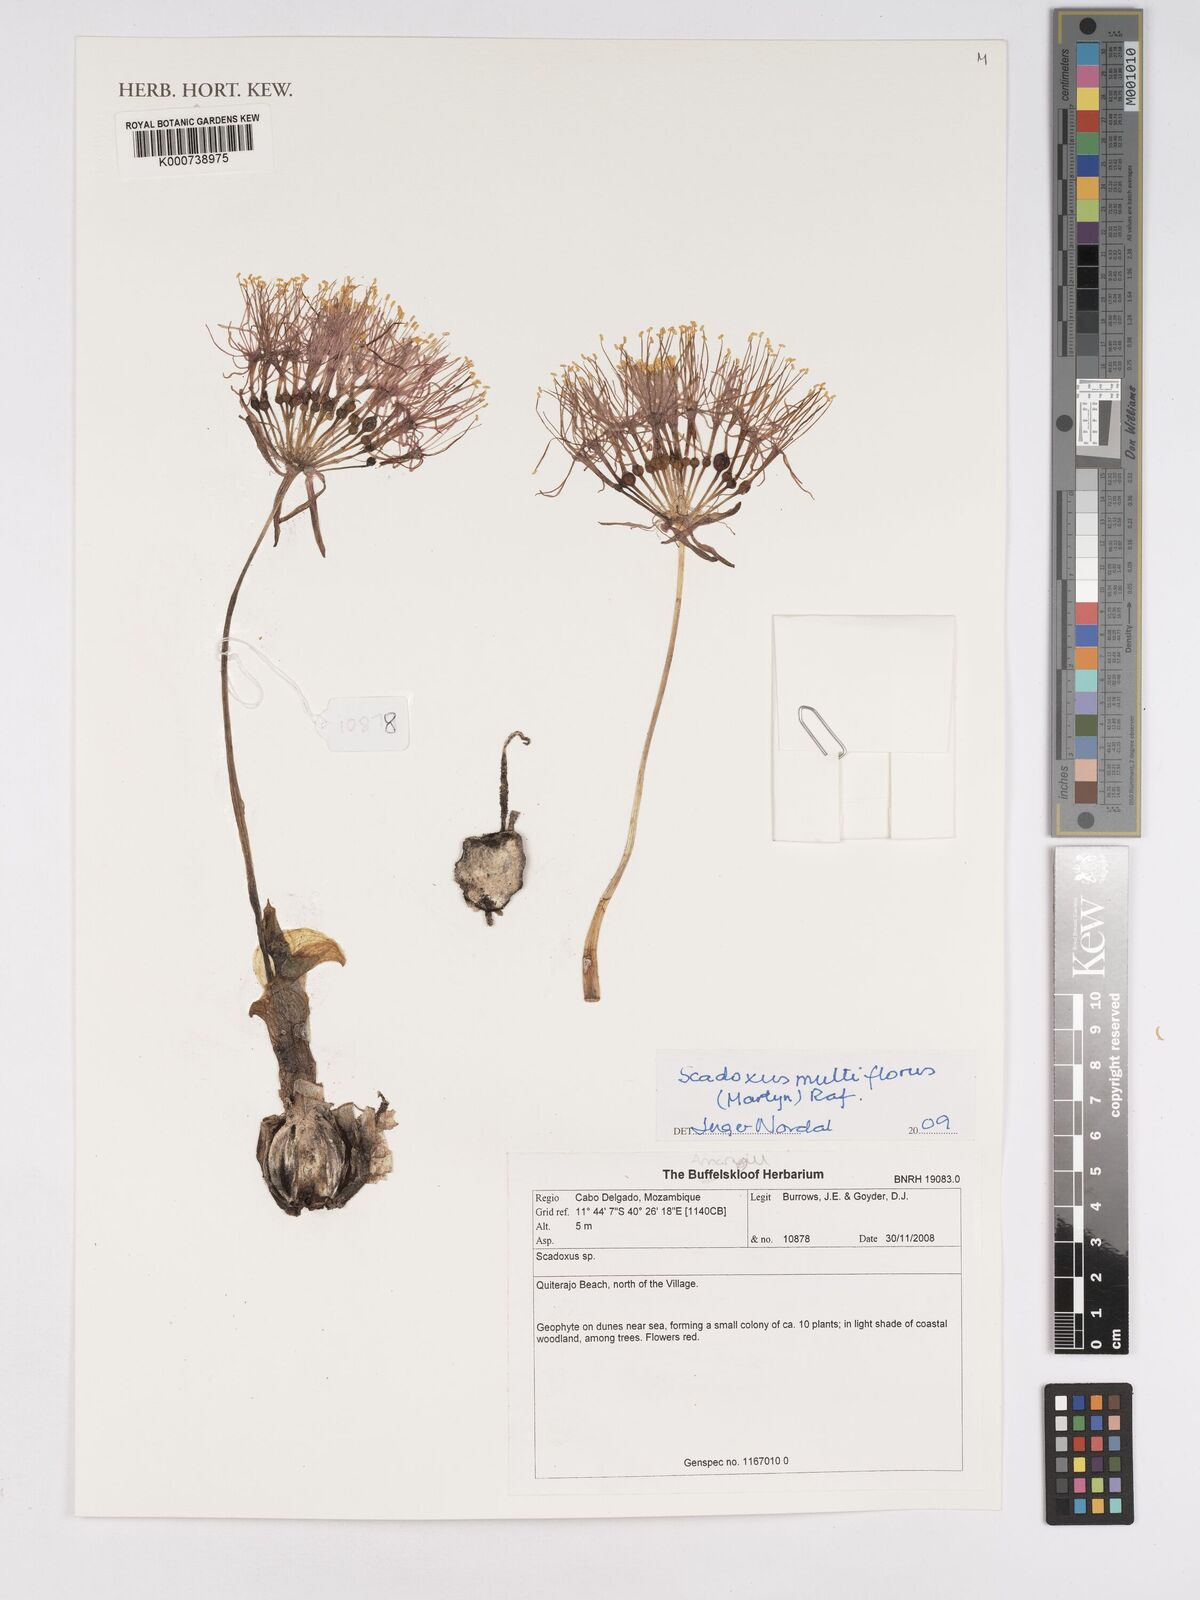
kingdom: Plantae
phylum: Tracheophyta
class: Liliopsida
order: Asparagales
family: Amaryllidaceae
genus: Scadoxus
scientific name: Scadoxus multiflorus
